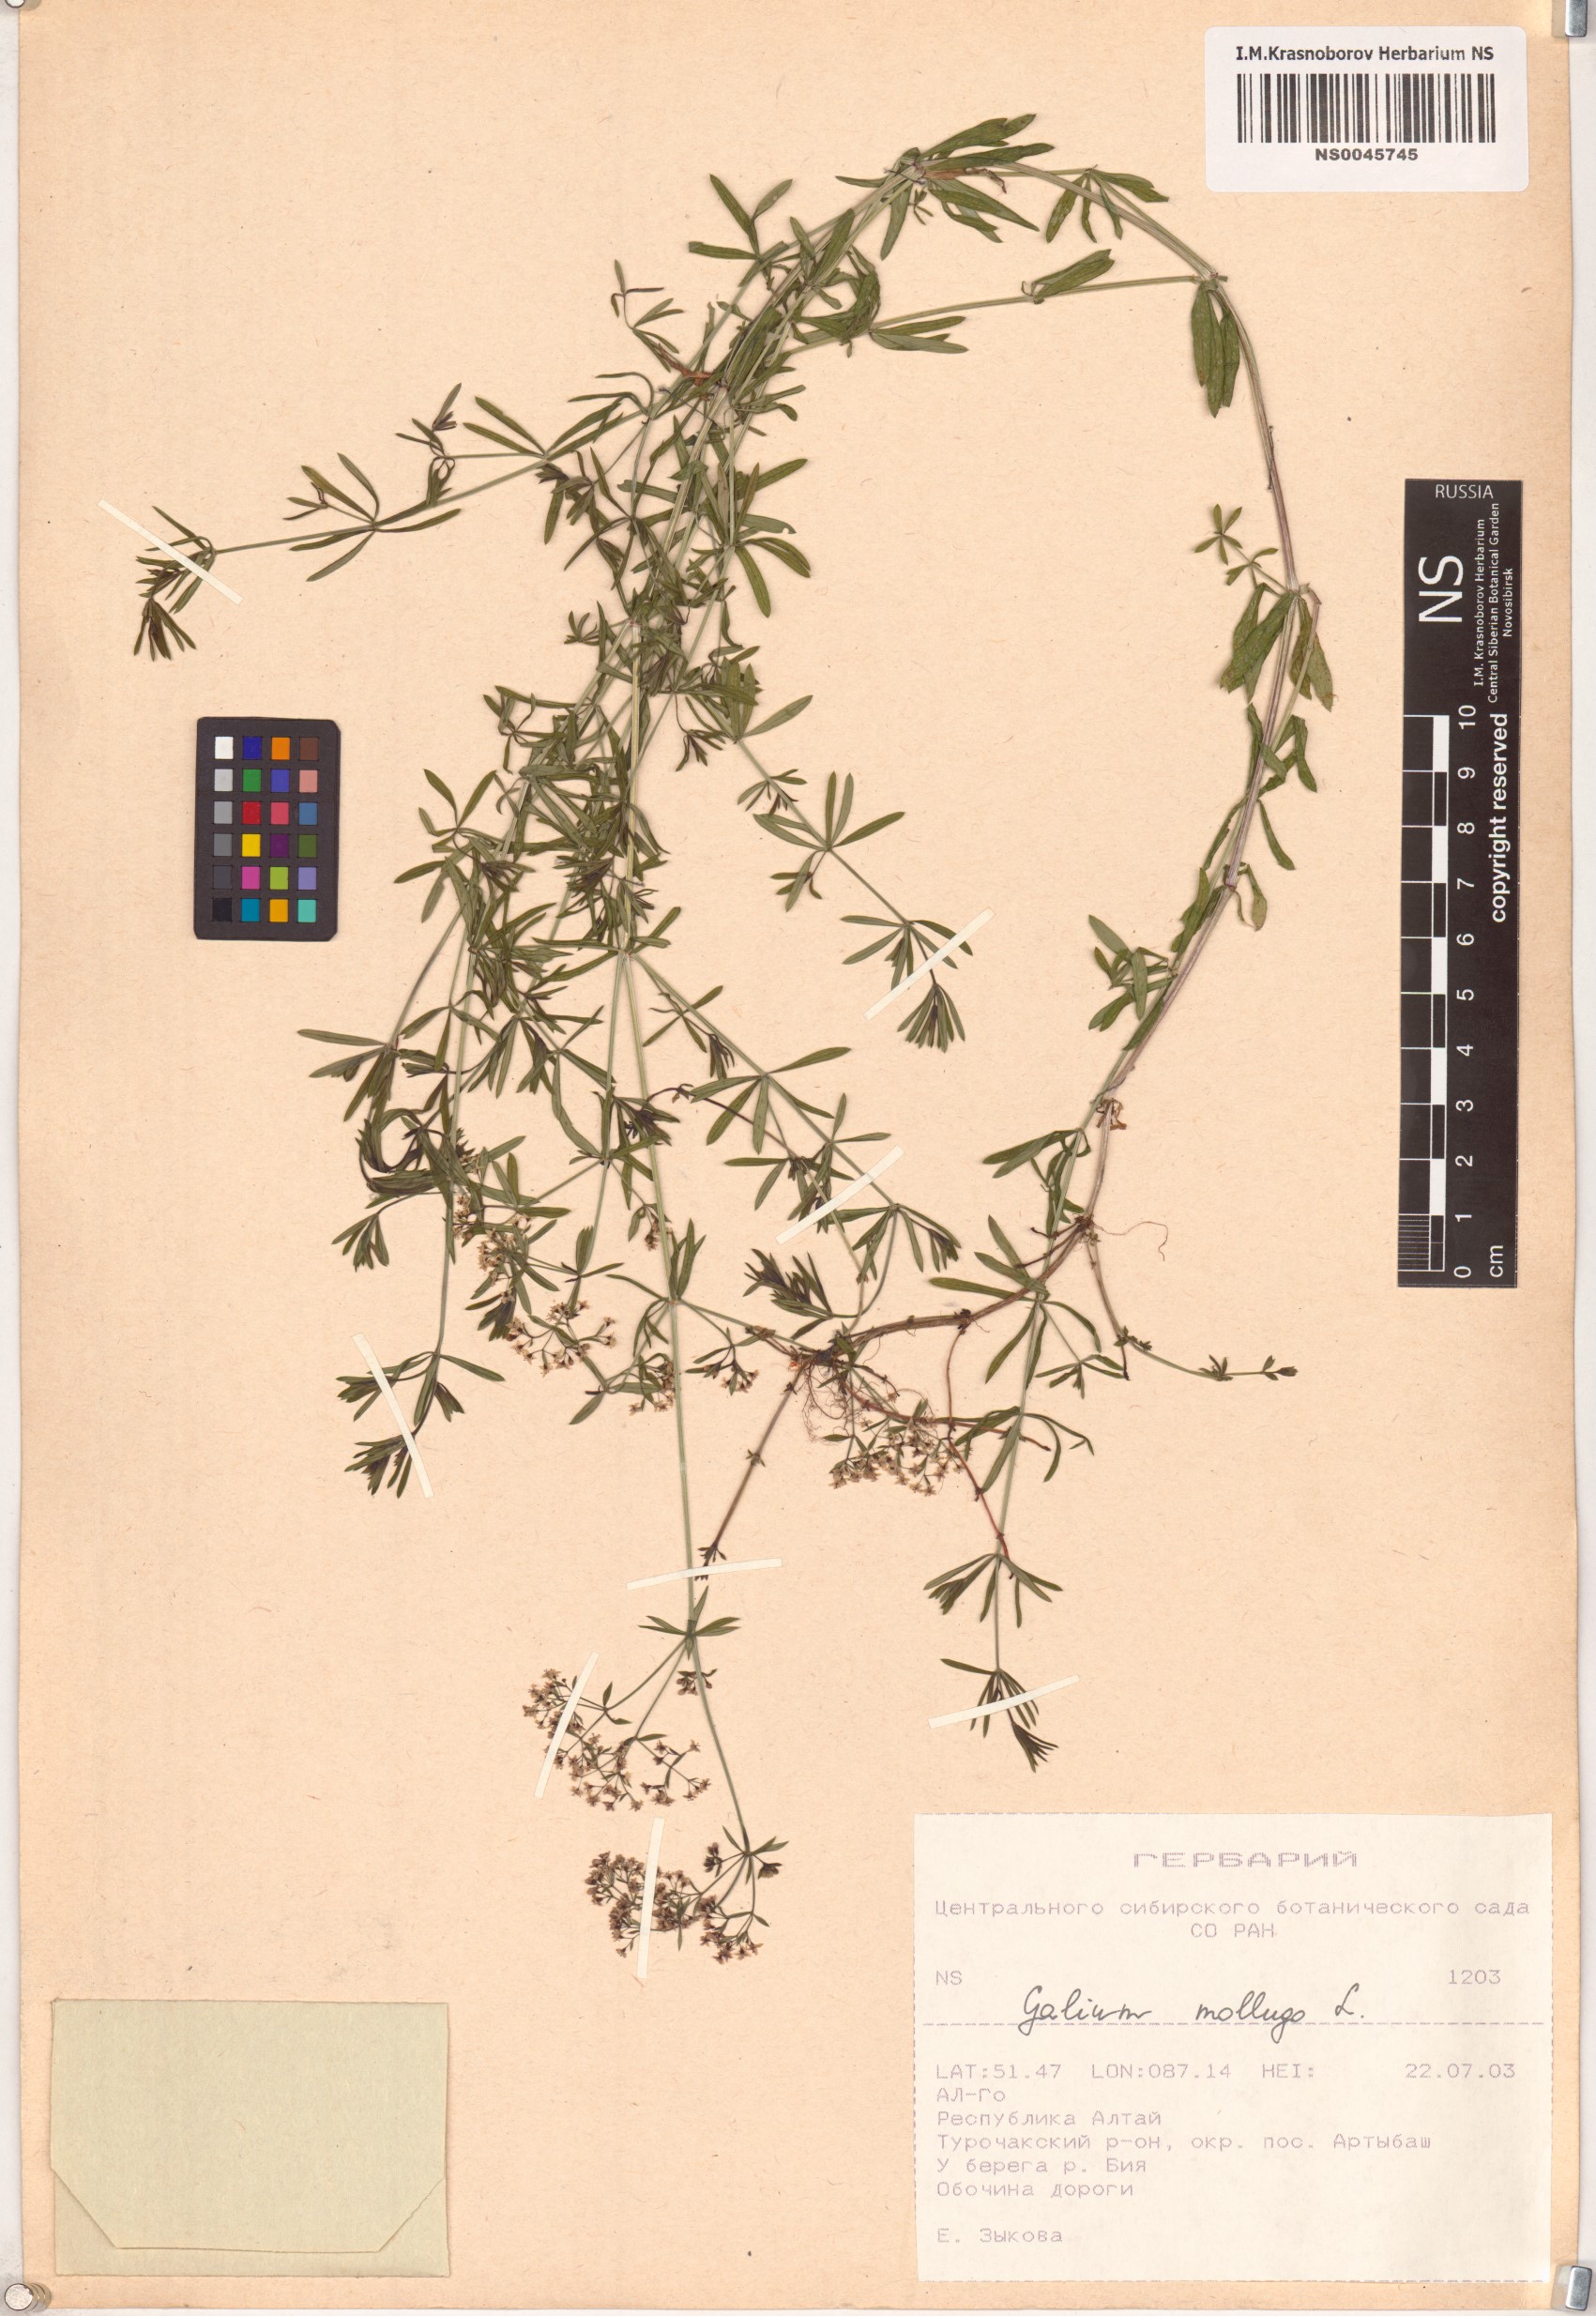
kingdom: Plantae
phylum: Tracheophyta
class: Magnoliopsida
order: Gentianales
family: Rubiaceae
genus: Galium
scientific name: Galium mollugo
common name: Hedge bedstraw
